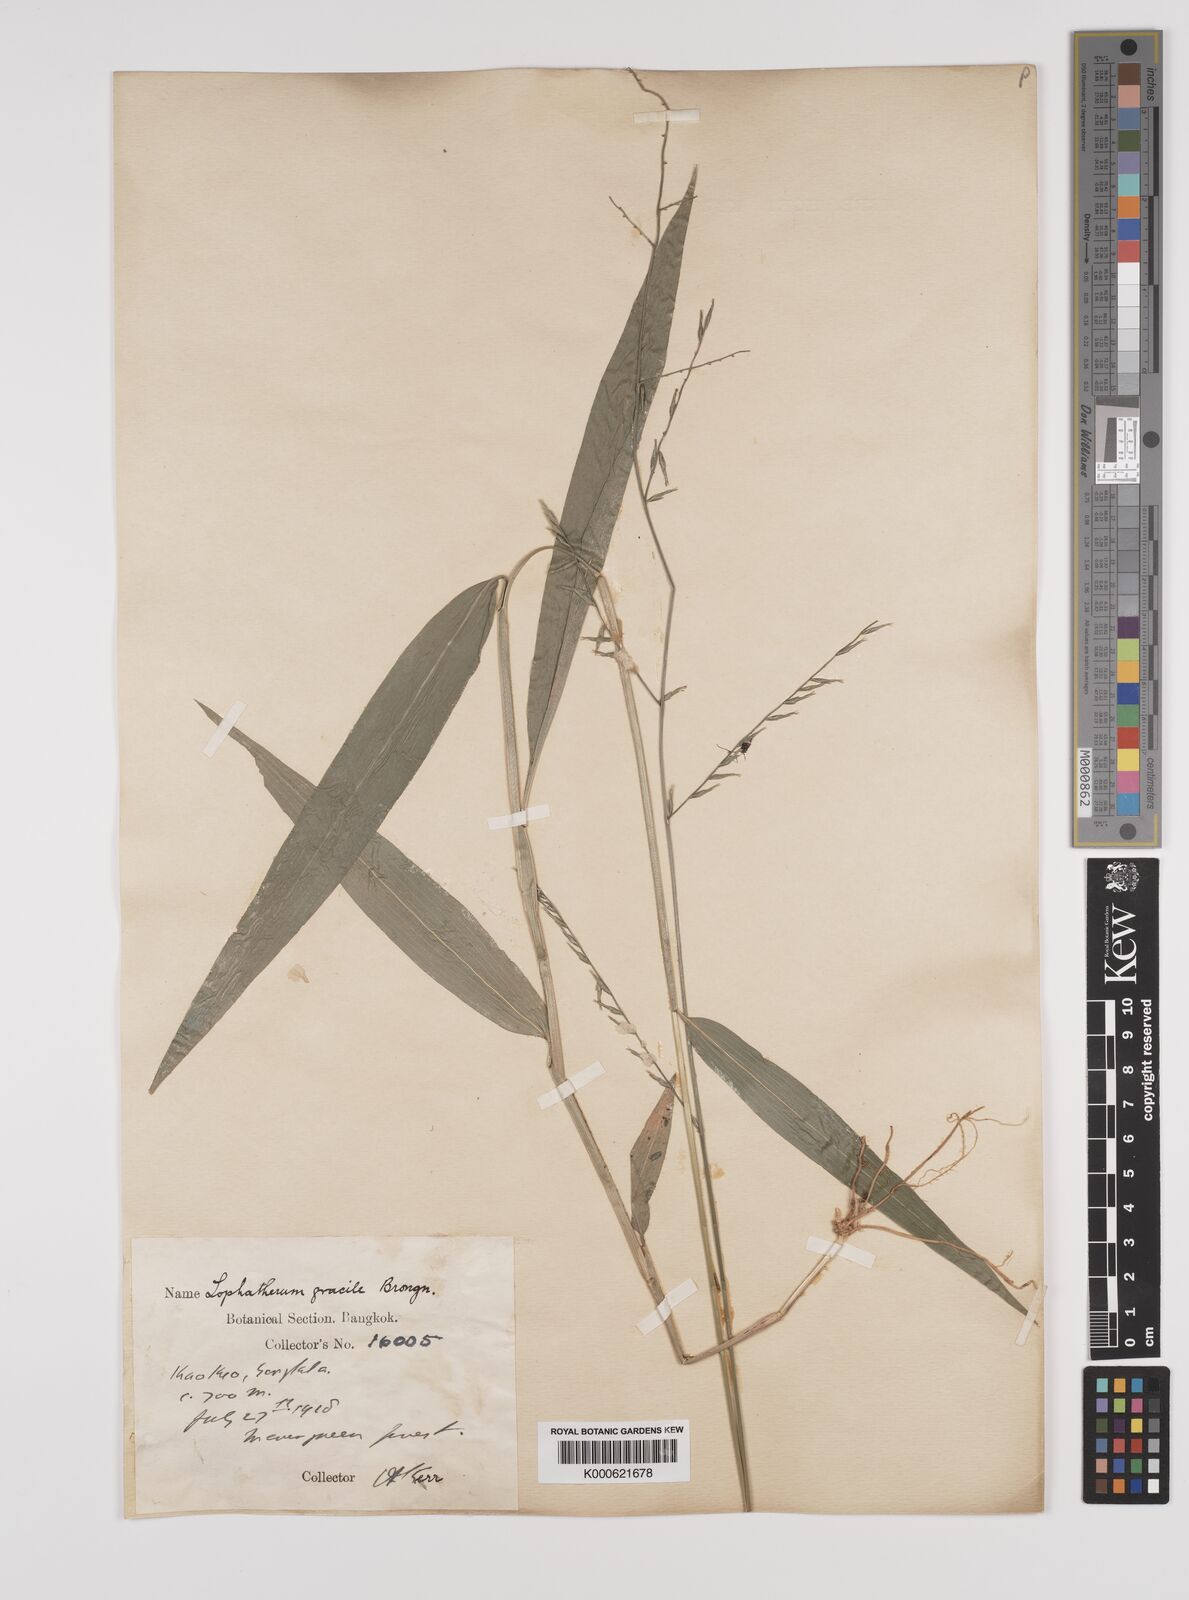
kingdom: Plantae
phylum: Tracheophyta
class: Liliopsida
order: Poales
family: Poaceae
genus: Lophatherum
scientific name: Lophatherum gracile
